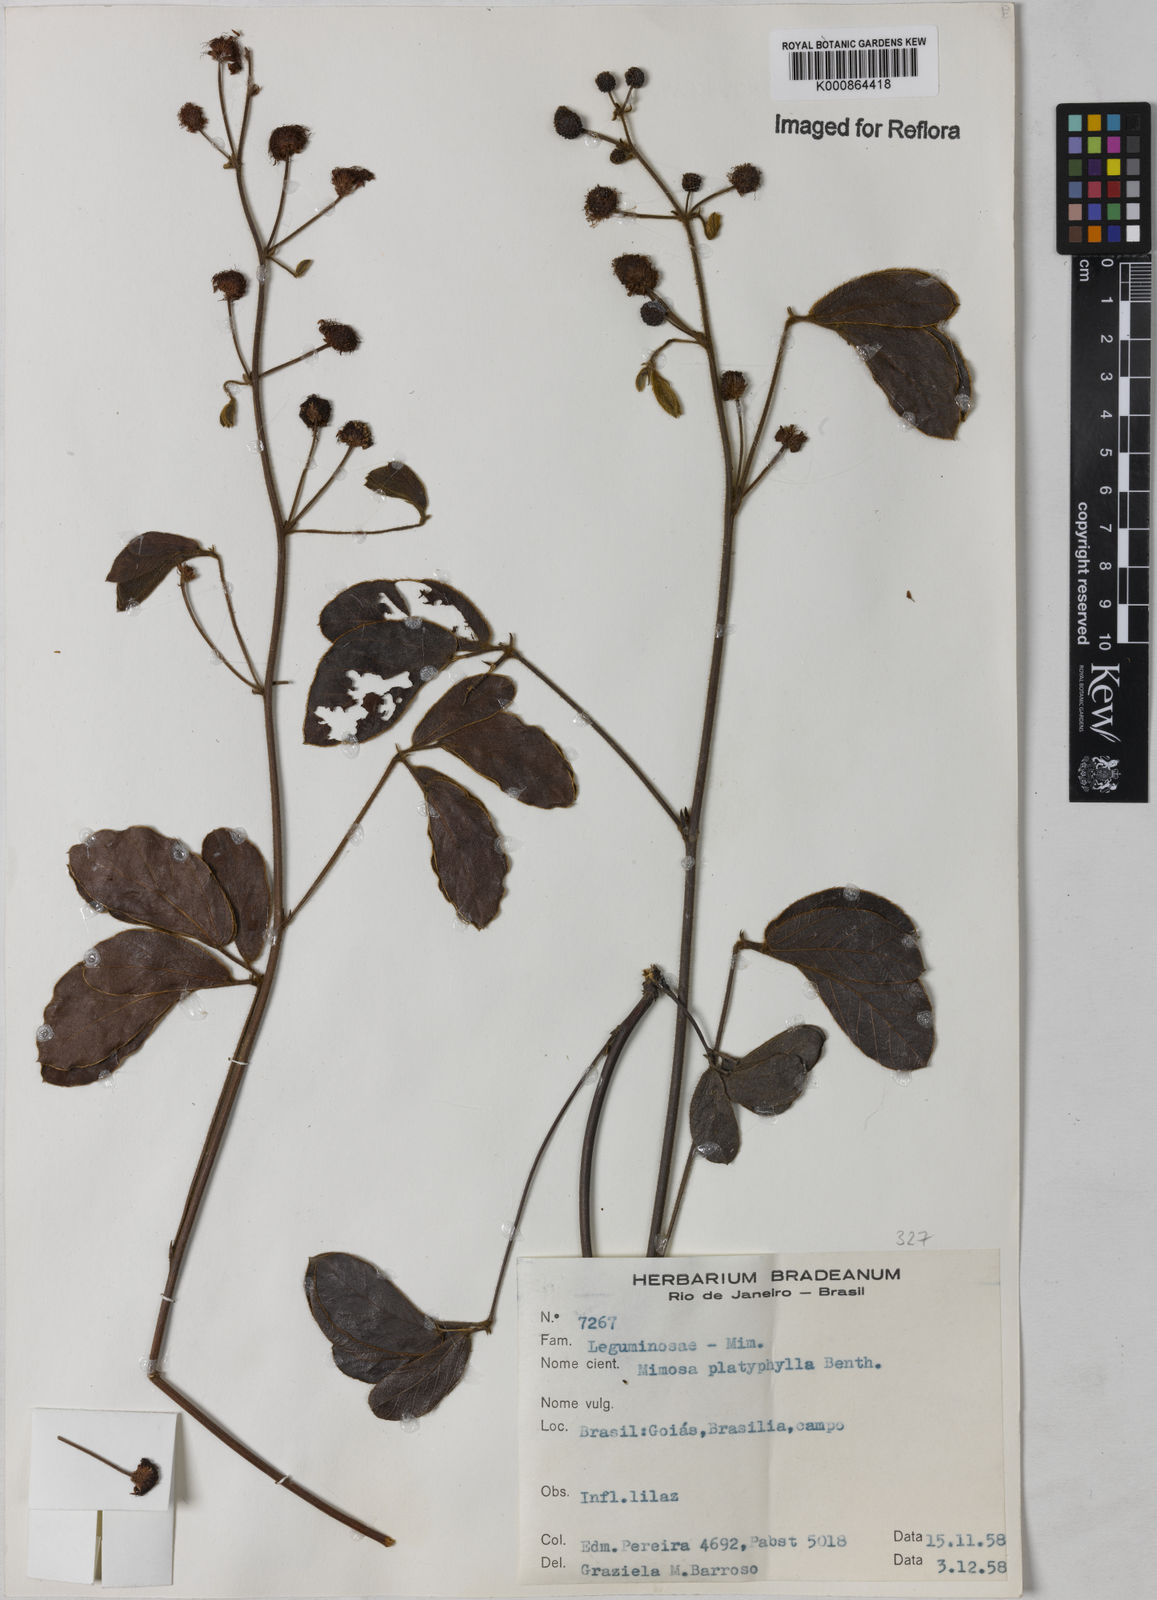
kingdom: Plantae
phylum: Tracheophyta
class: Magnoliopsida
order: Fabales
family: Fabaceae
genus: Mimosa
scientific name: Mimosa platyphylla
